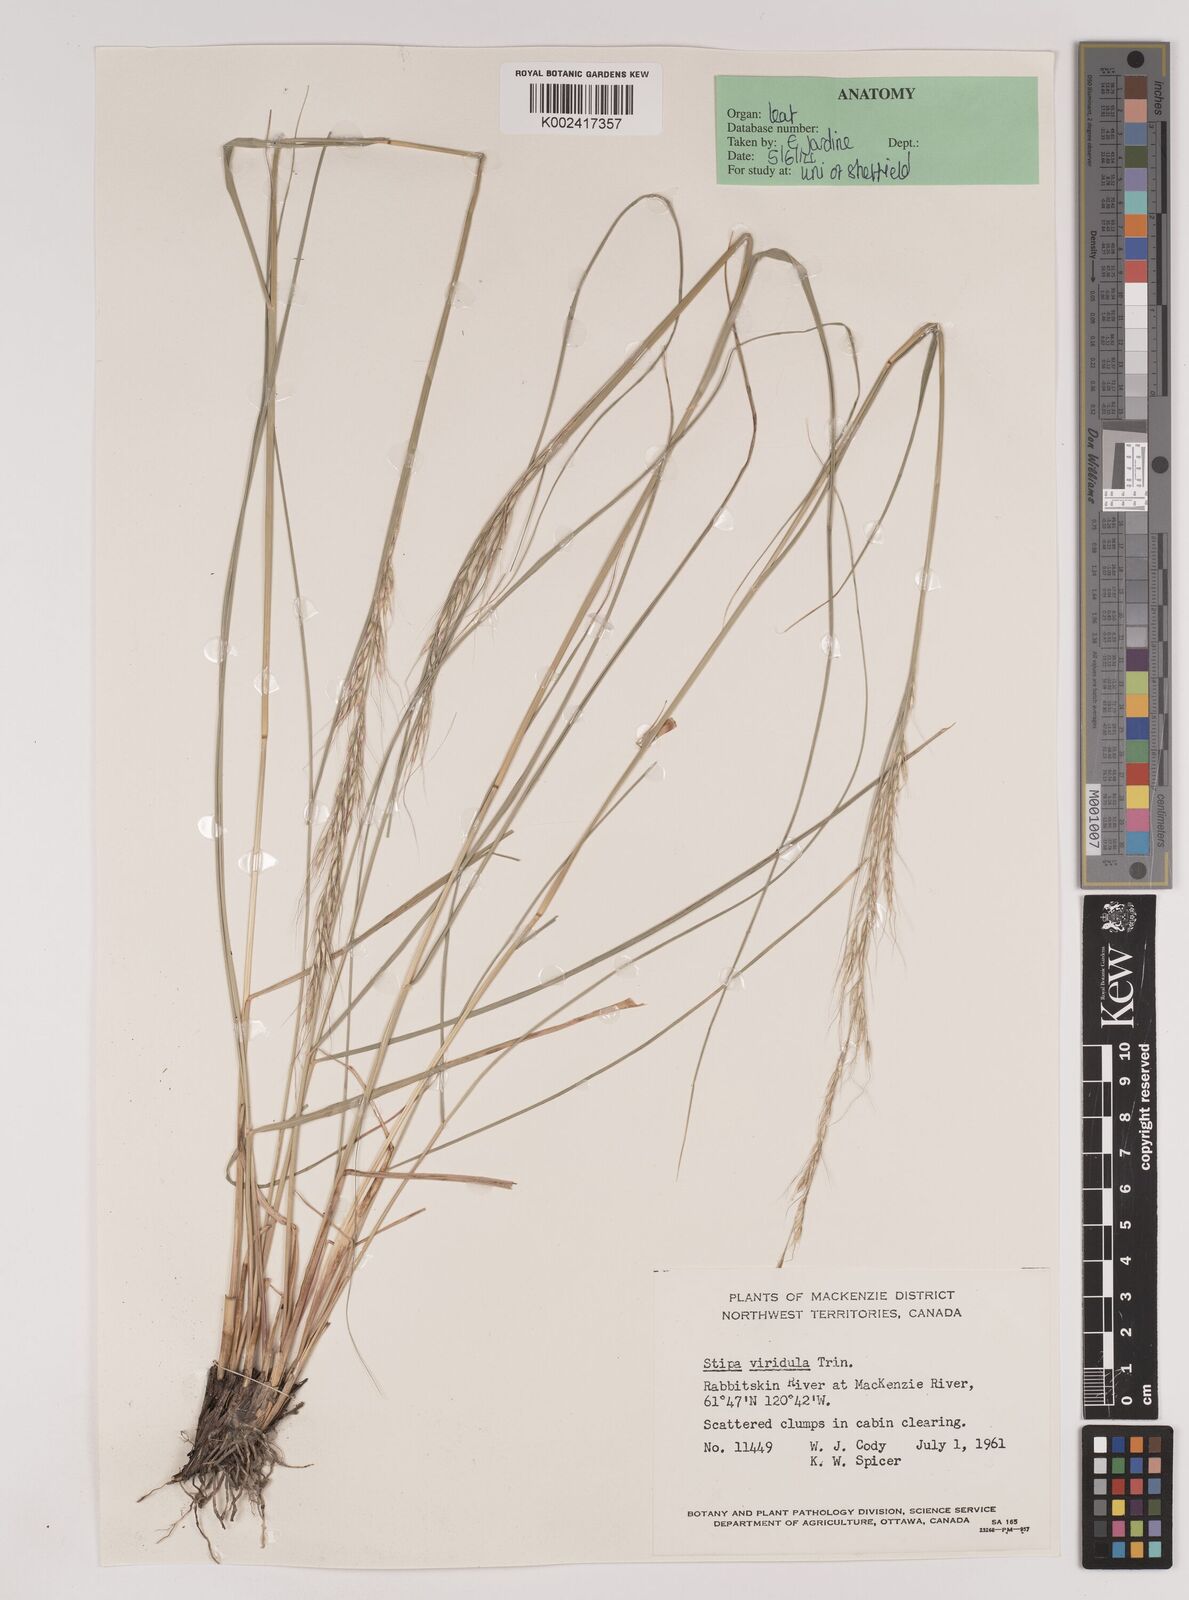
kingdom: Plantae
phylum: Tracheophyta
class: Liliopsida
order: Poales
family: Poaceae
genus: Nassella
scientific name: Nassella viridula
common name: Green needlegrass
